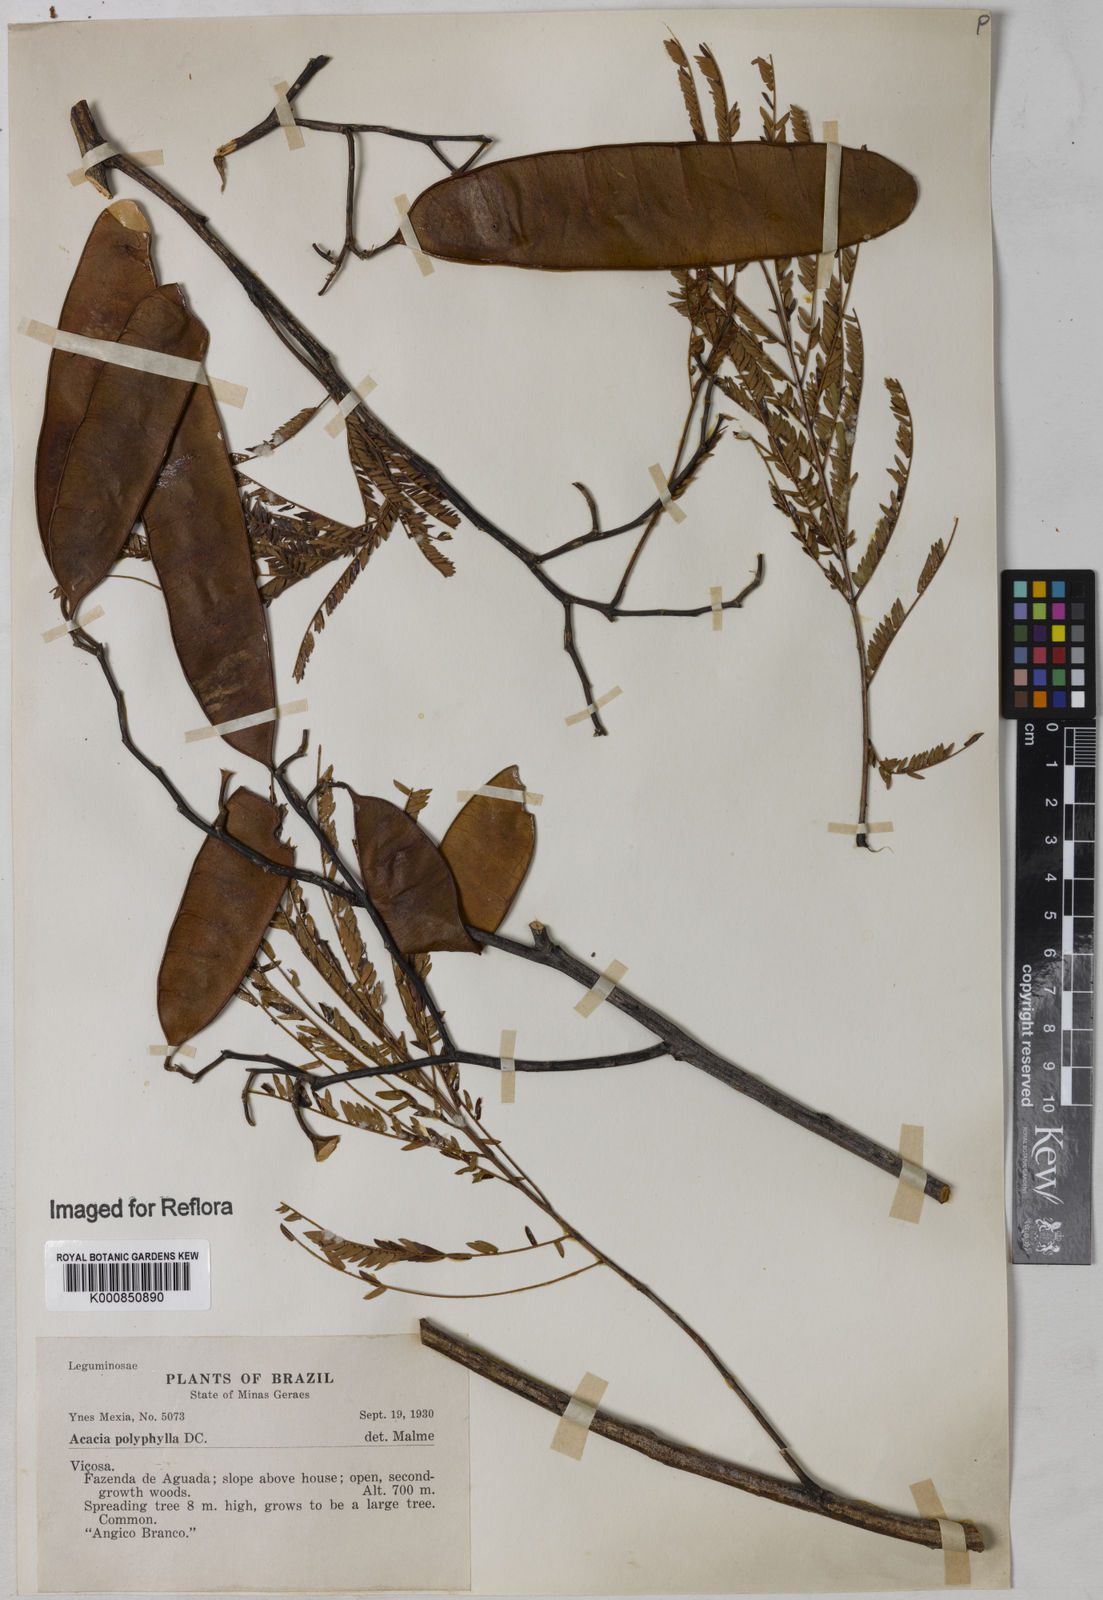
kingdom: Plantae
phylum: Tracheophyta
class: Magnoliopsida
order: Fabales
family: Fabaceae
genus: Senegalia
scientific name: Senegalia polyphylla
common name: White-tamarind
